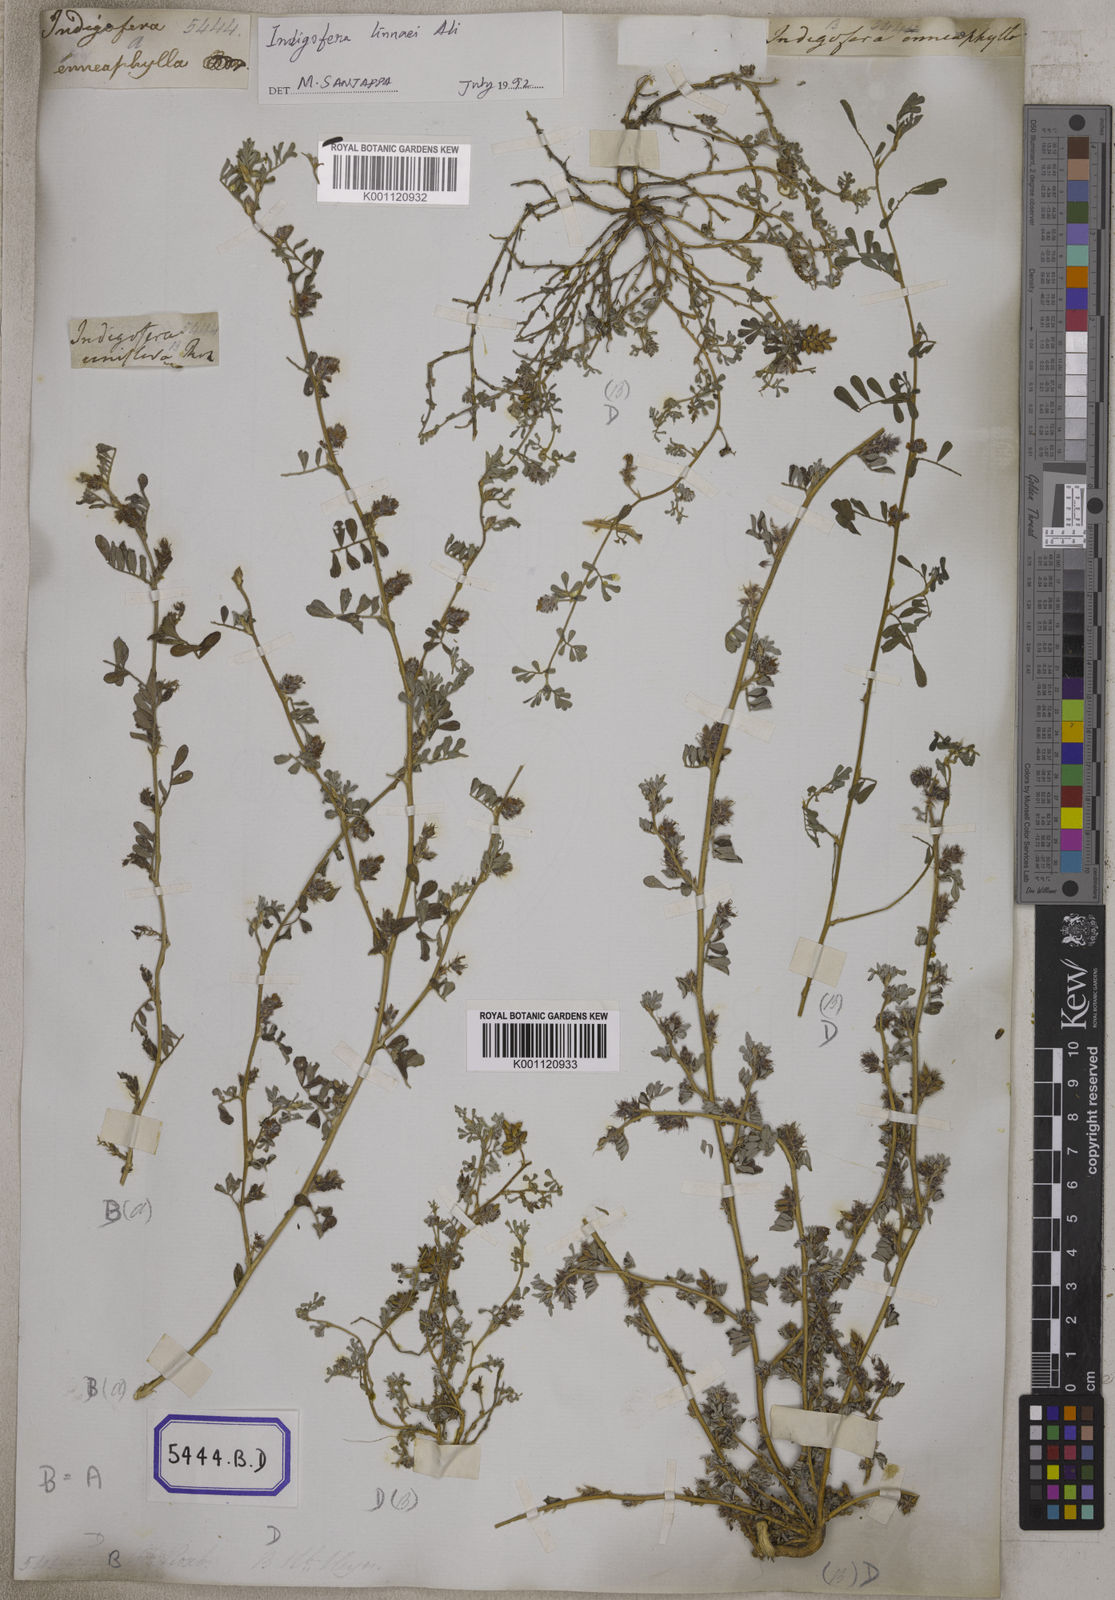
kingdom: Plantae
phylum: Tracheophyta
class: Magnoliopsida
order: Fabales
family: Fabaceae
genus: Indigofera
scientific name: Indigofera linnaei
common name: Nine-leaf indigo
